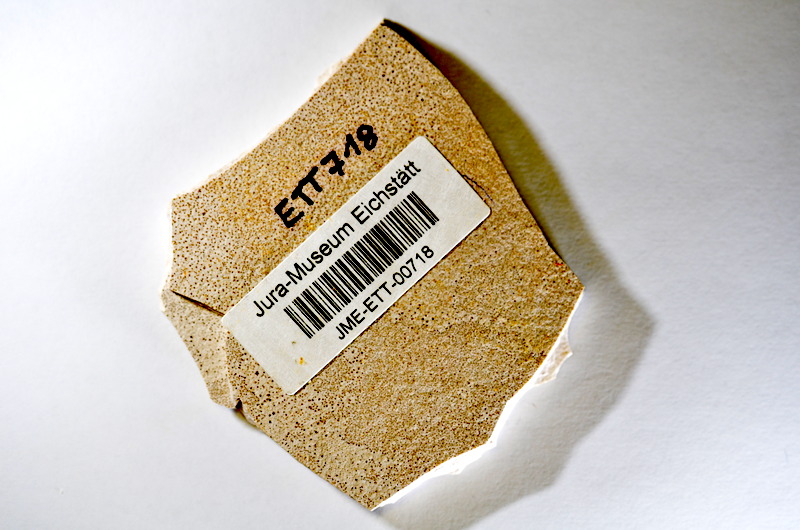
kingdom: Animalia
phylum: Chordata
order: Salmoniformes
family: Orthogonikleithridae
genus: Orthogonikleithrus
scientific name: Orthogonikleithrus hoelli
